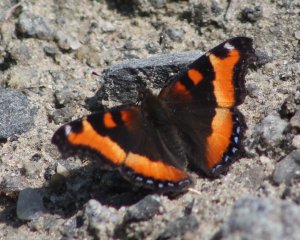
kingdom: Animalia
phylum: Arthropoda
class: Insecta
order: Lepidoptera
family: Nymphalidae
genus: Aglais
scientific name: Aglais milberti
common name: Milbert's Tortoiseshell
